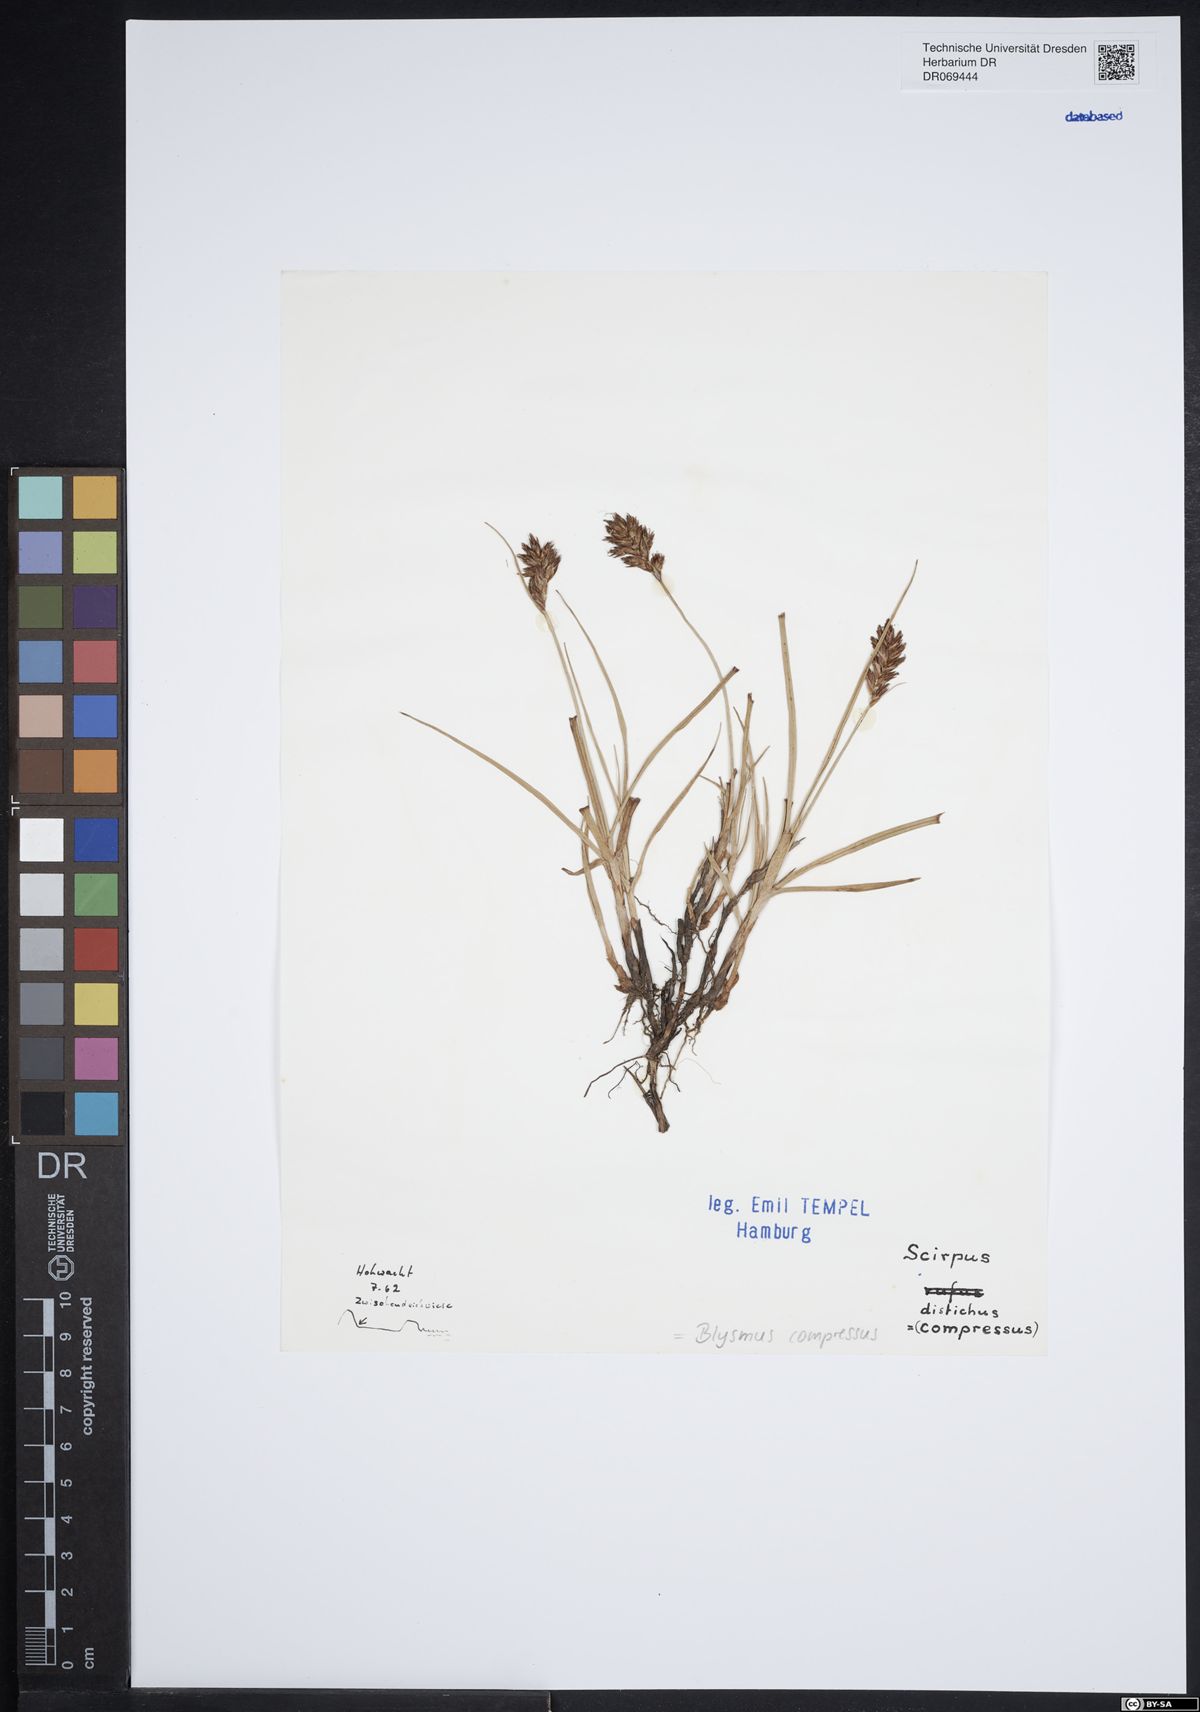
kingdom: Plantae
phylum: Tracheophyta
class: Liliopsida
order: Poales
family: Cyperaceae
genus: Blysmus
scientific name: Blysmus compressus
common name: Flat-sedge
